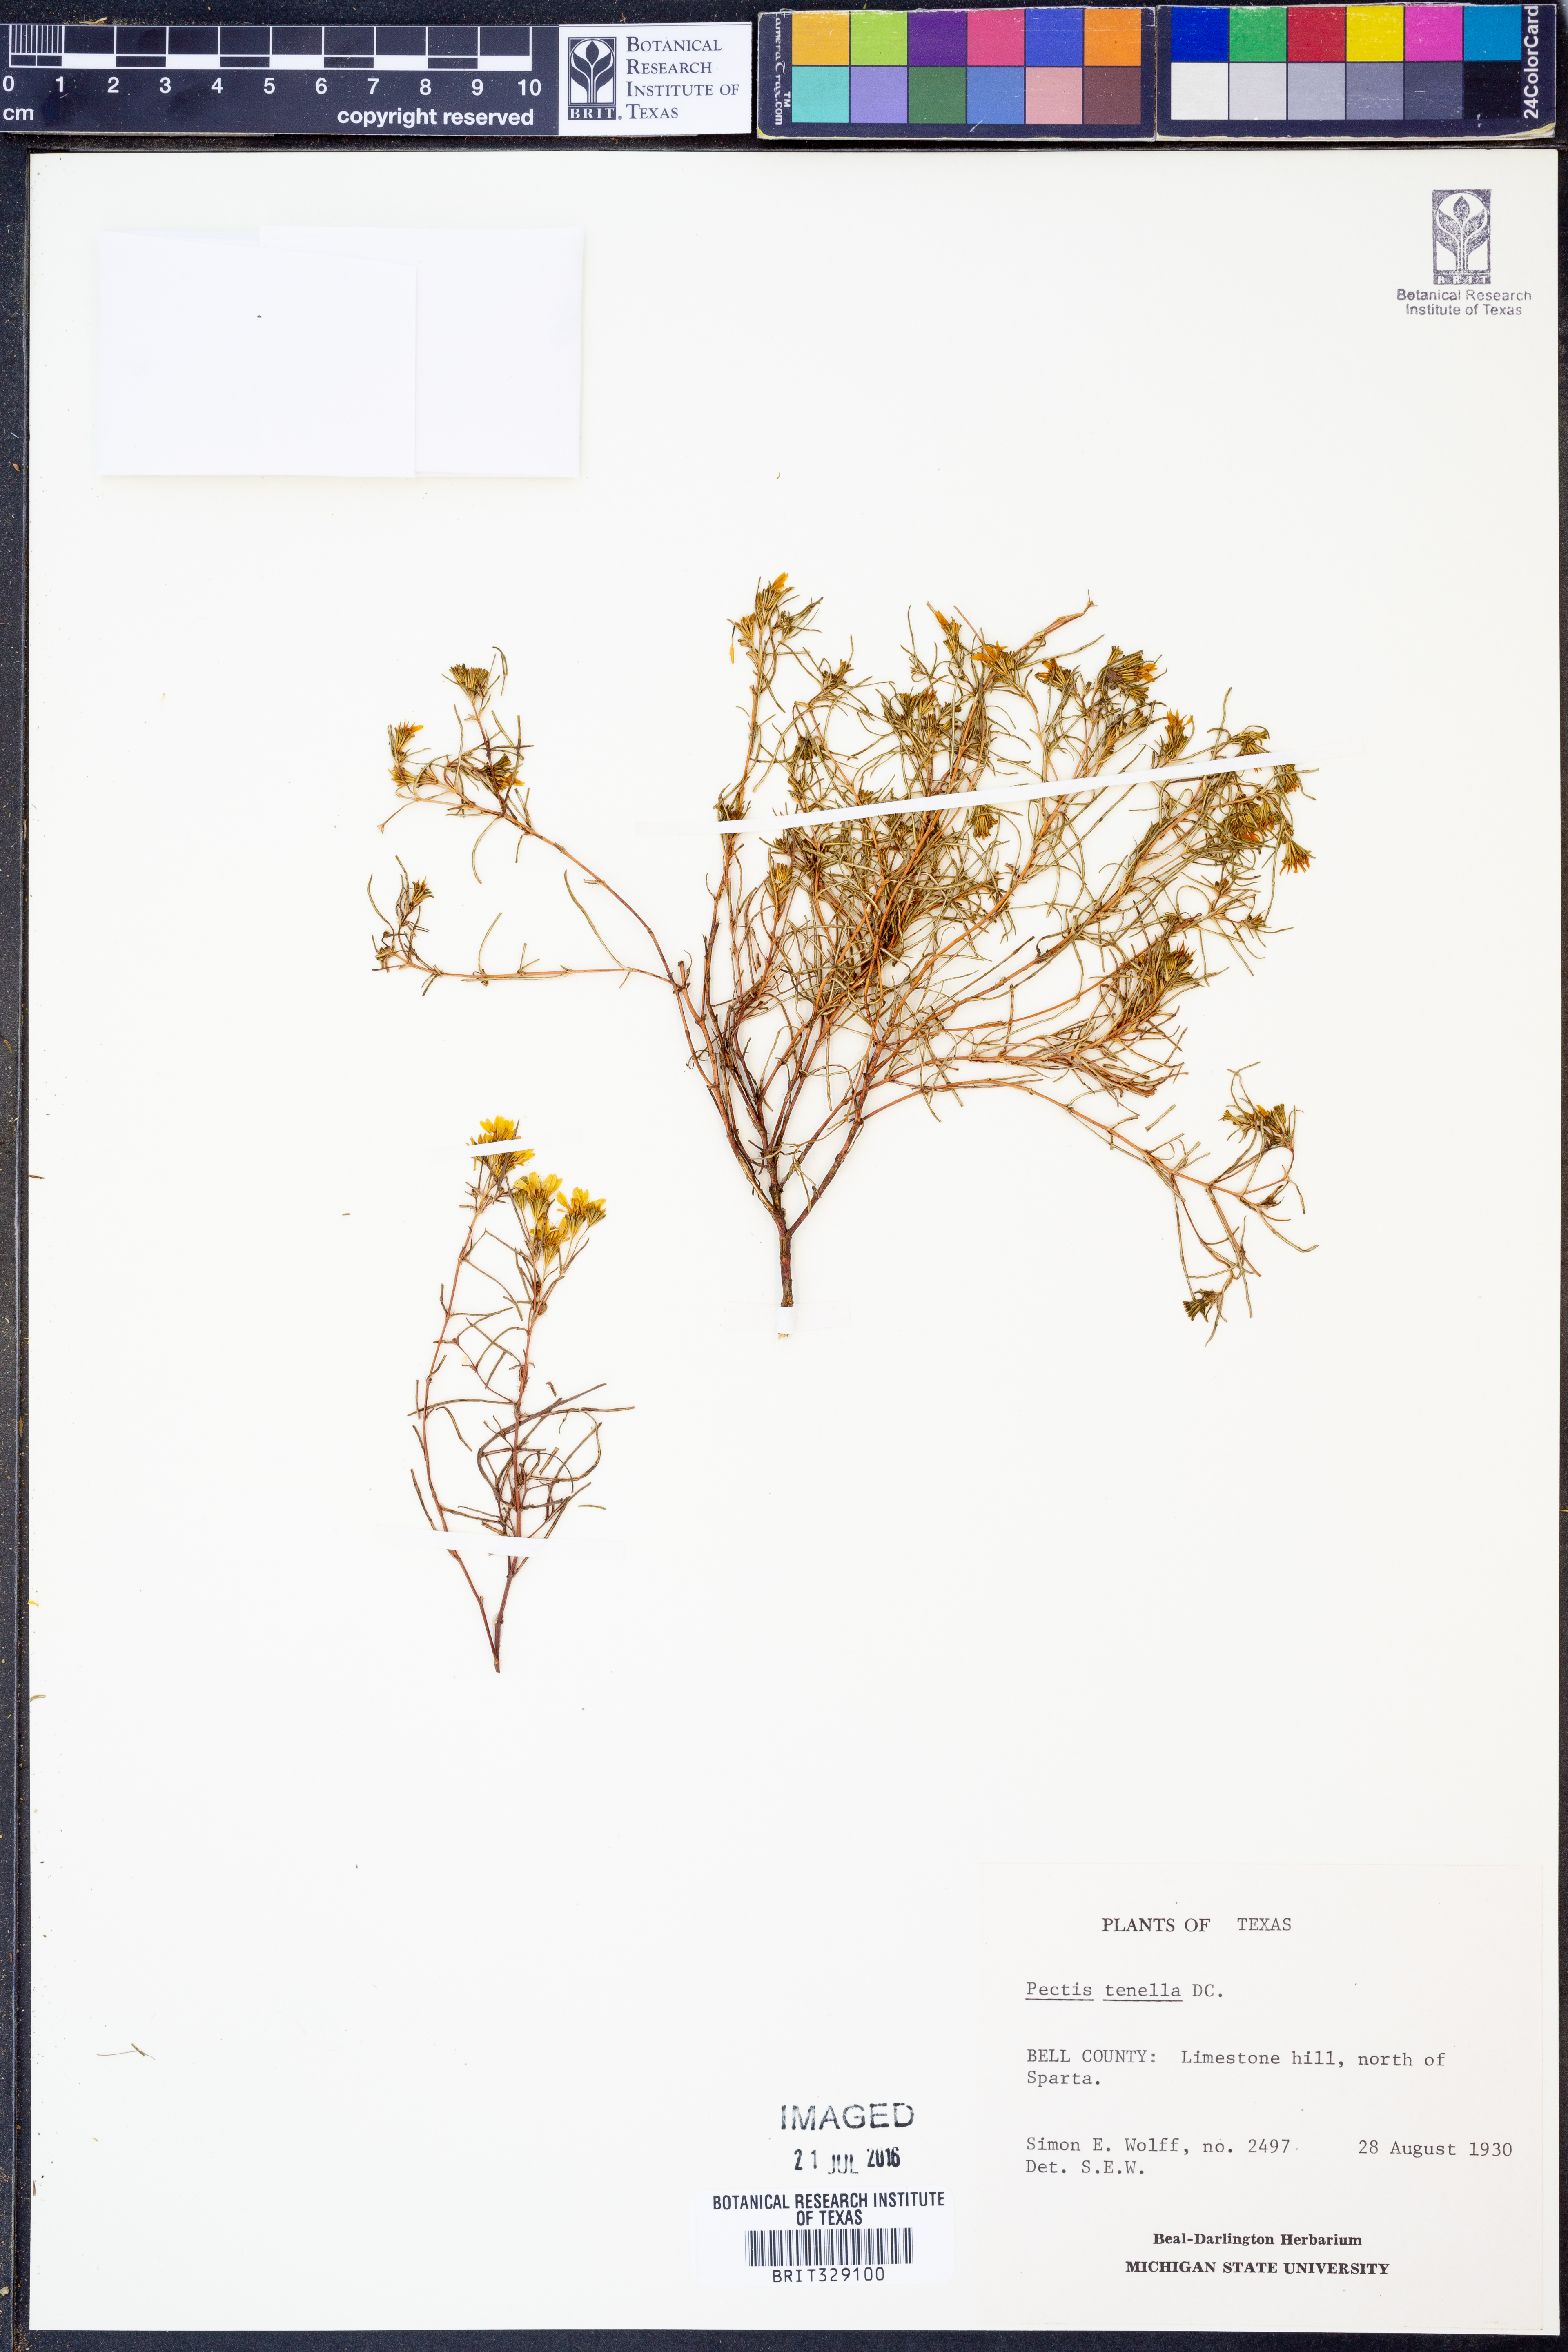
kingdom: Plantae
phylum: Tracheophyta
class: Magnoliopsida
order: Asterales
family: Asteraceae
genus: Pectis
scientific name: Pectis angustifolia
